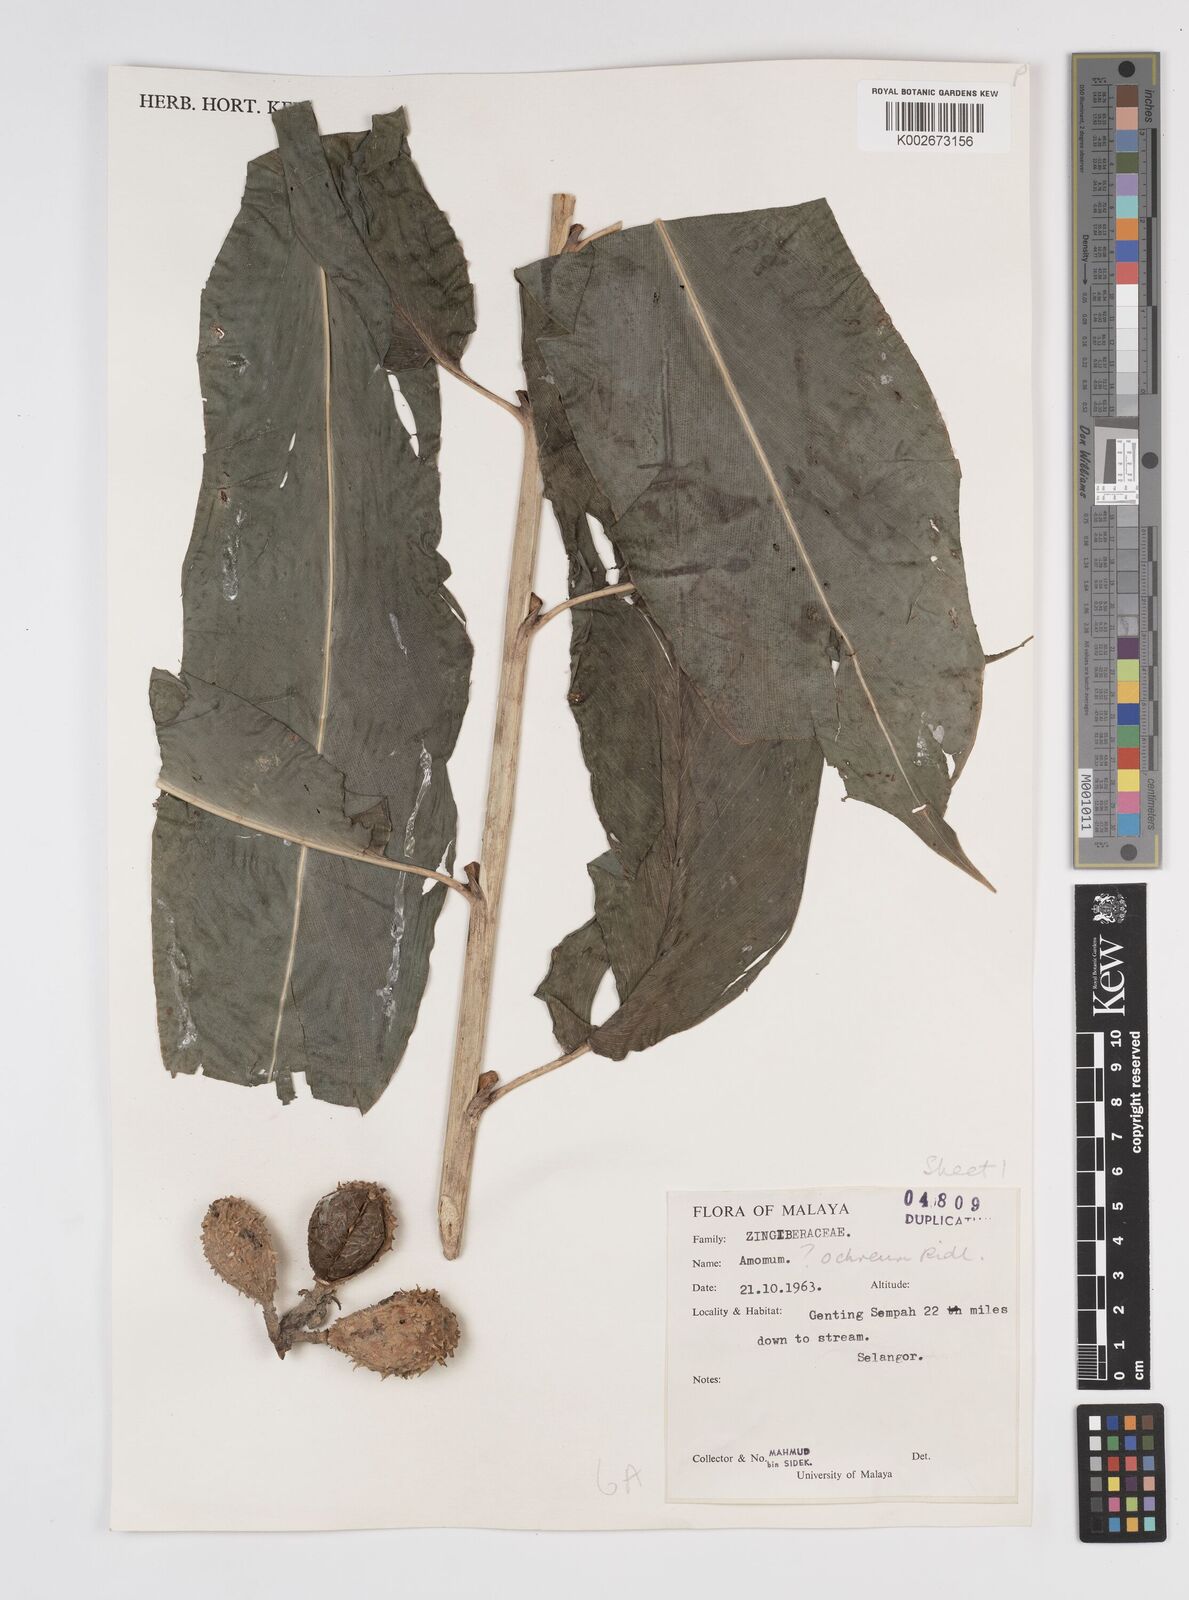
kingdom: Plantae
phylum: Tracheophyta
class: Liliopsida
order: Zingiberales
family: Zingiberaceae
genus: Meistera
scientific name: Meistera ochrea
